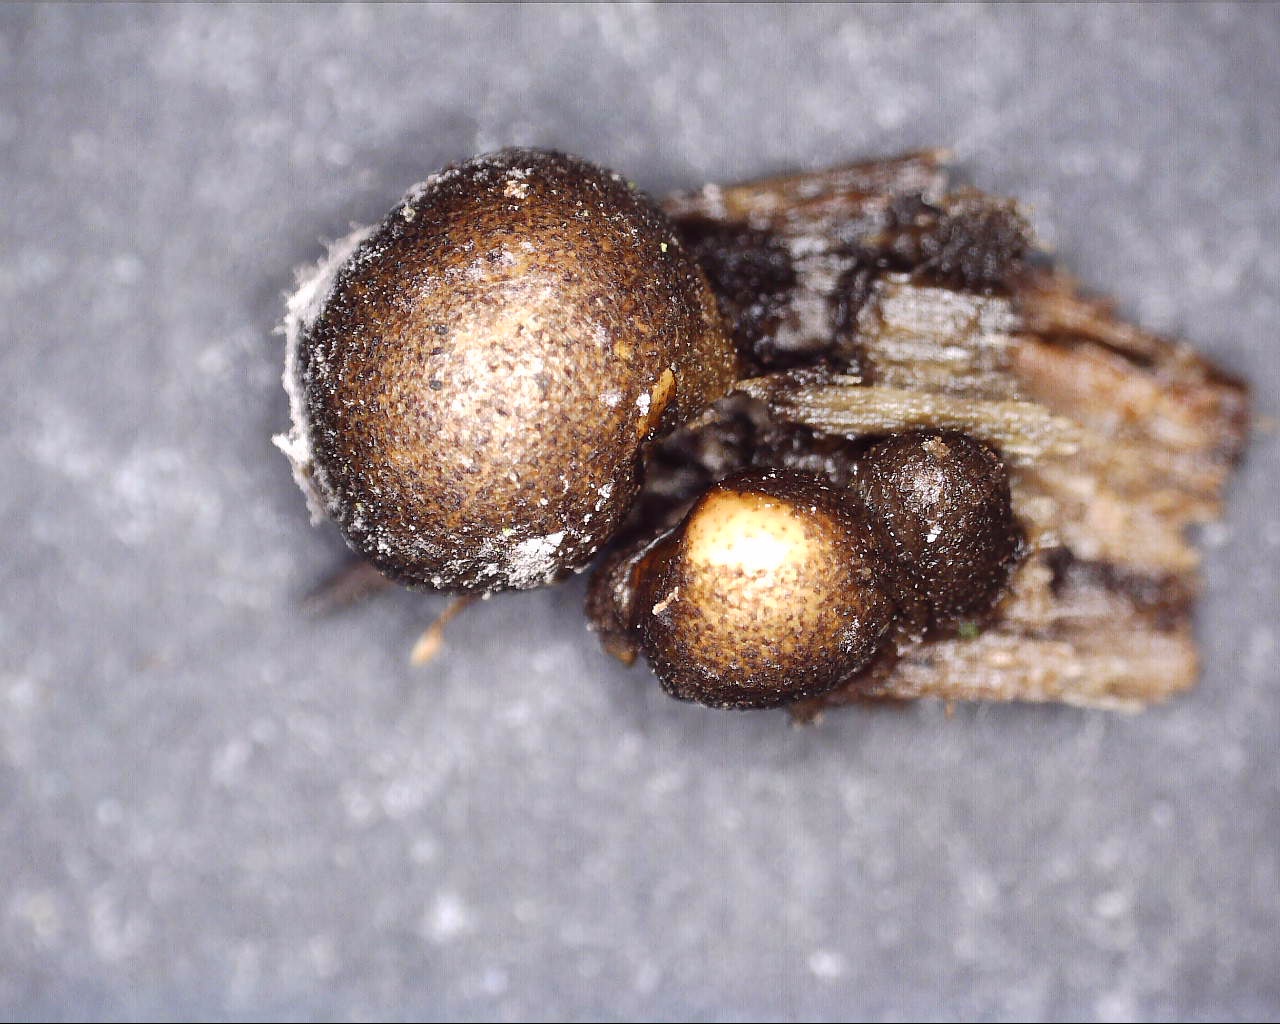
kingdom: Protozoa
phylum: Mycetozoa
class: Myxomycetes
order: Cribrariales
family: Tubiferaceae
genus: Lycogala
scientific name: Lycogala epidendrum
